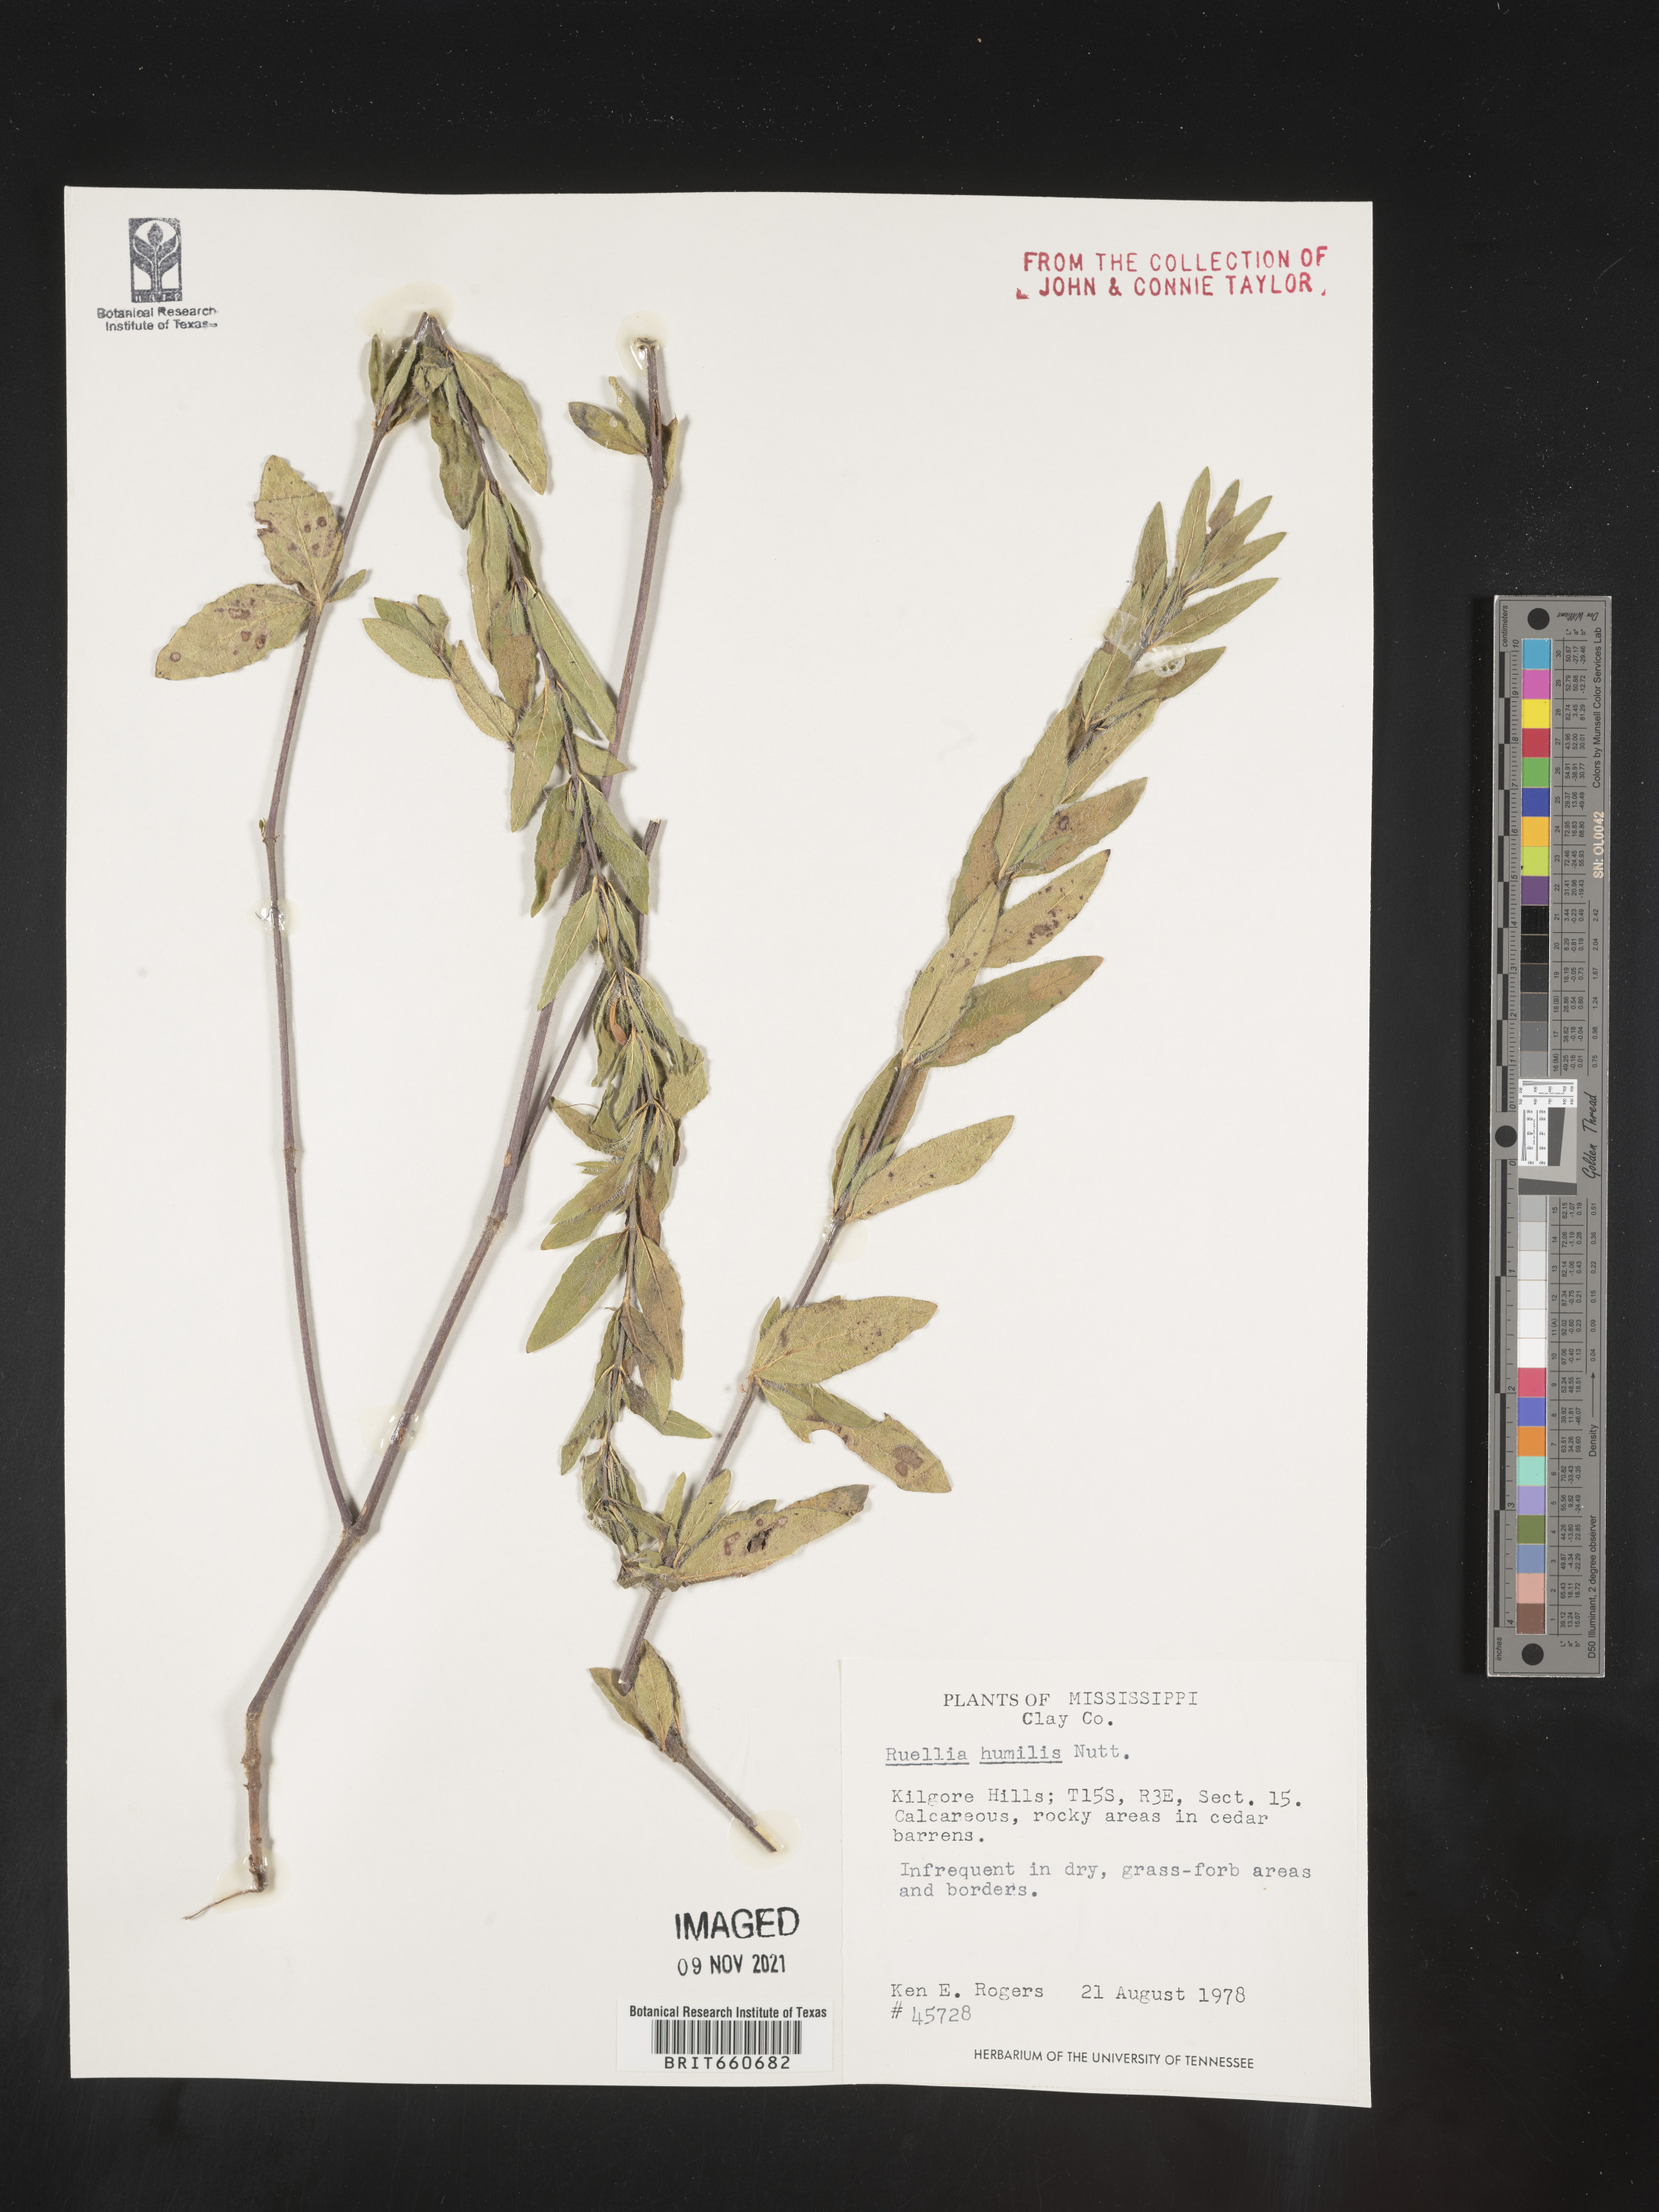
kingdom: Plantae
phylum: Tracheophyta
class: Magnoliopsida
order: Lamiales
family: Acanthaceae
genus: Ruellia
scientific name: Ruellia humilis
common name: Fringe-leaf ruellia
